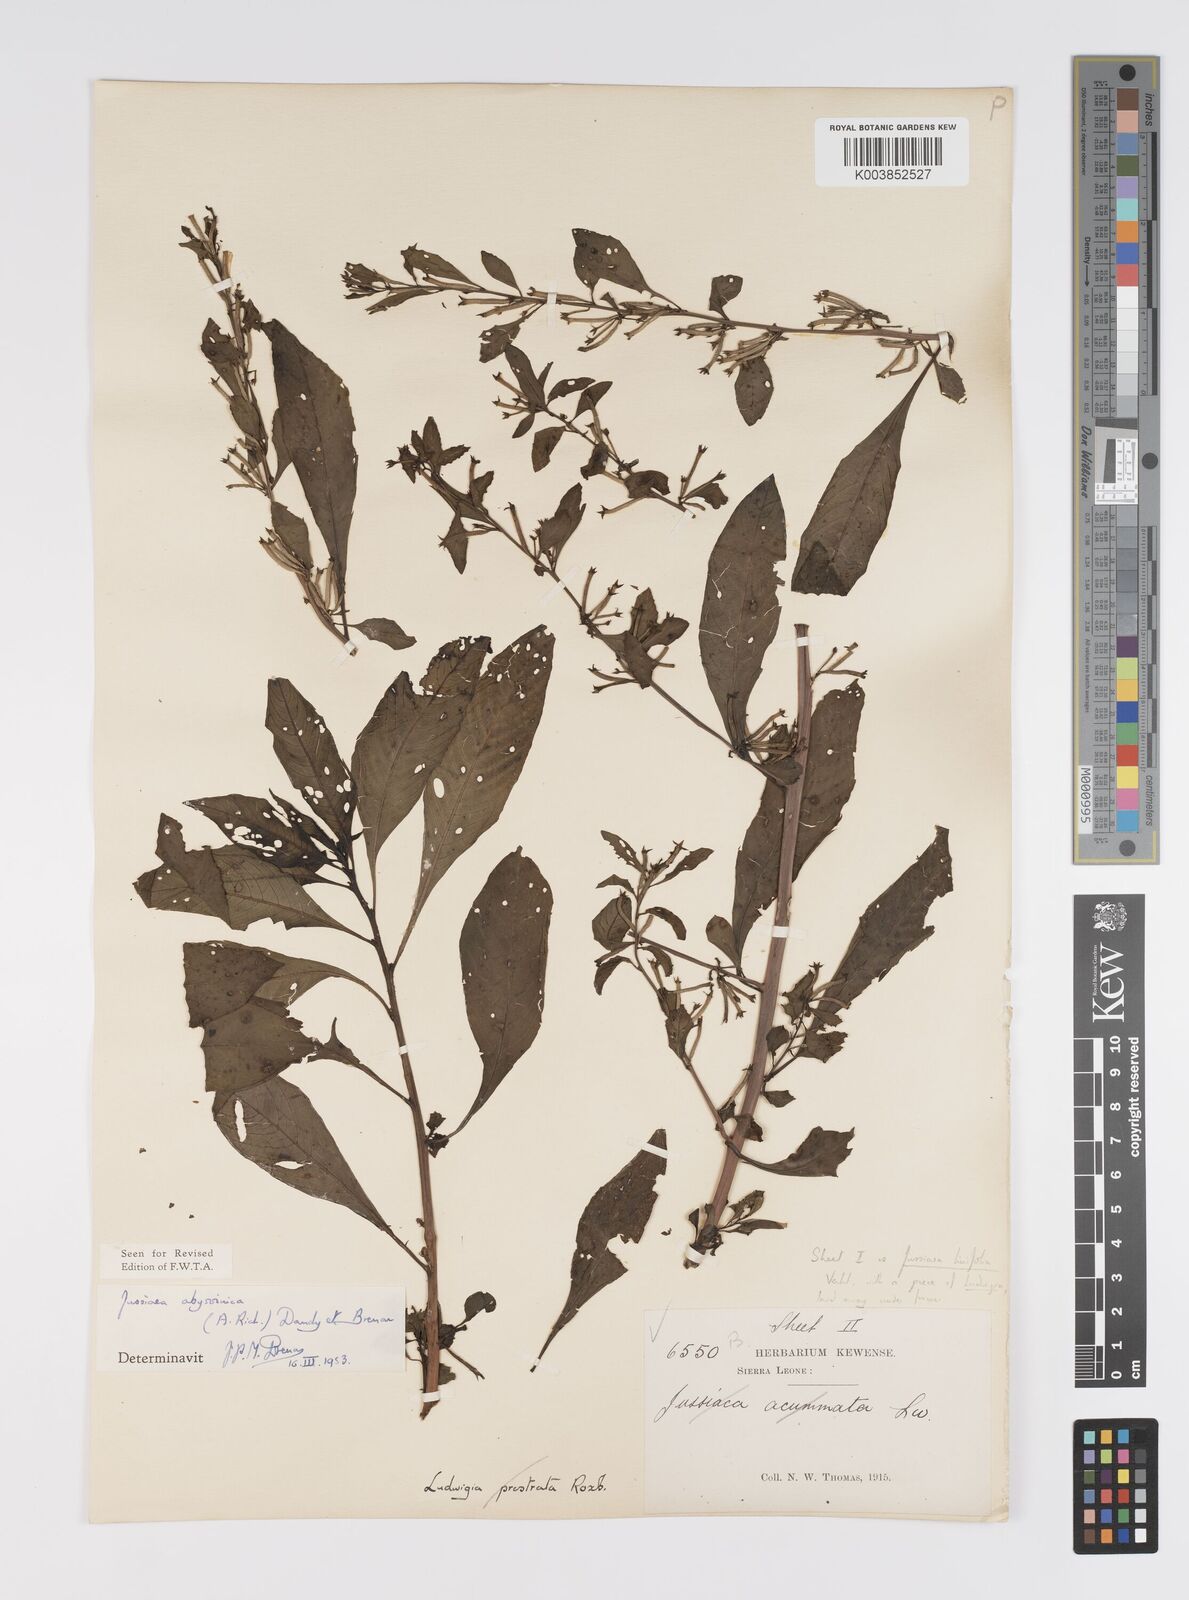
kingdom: Plantae
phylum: Tracheophyta
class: Magnoliopsida
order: Myrtales
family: Onagraceae
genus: Ludwigia
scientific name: Ludwigia abyssinica
